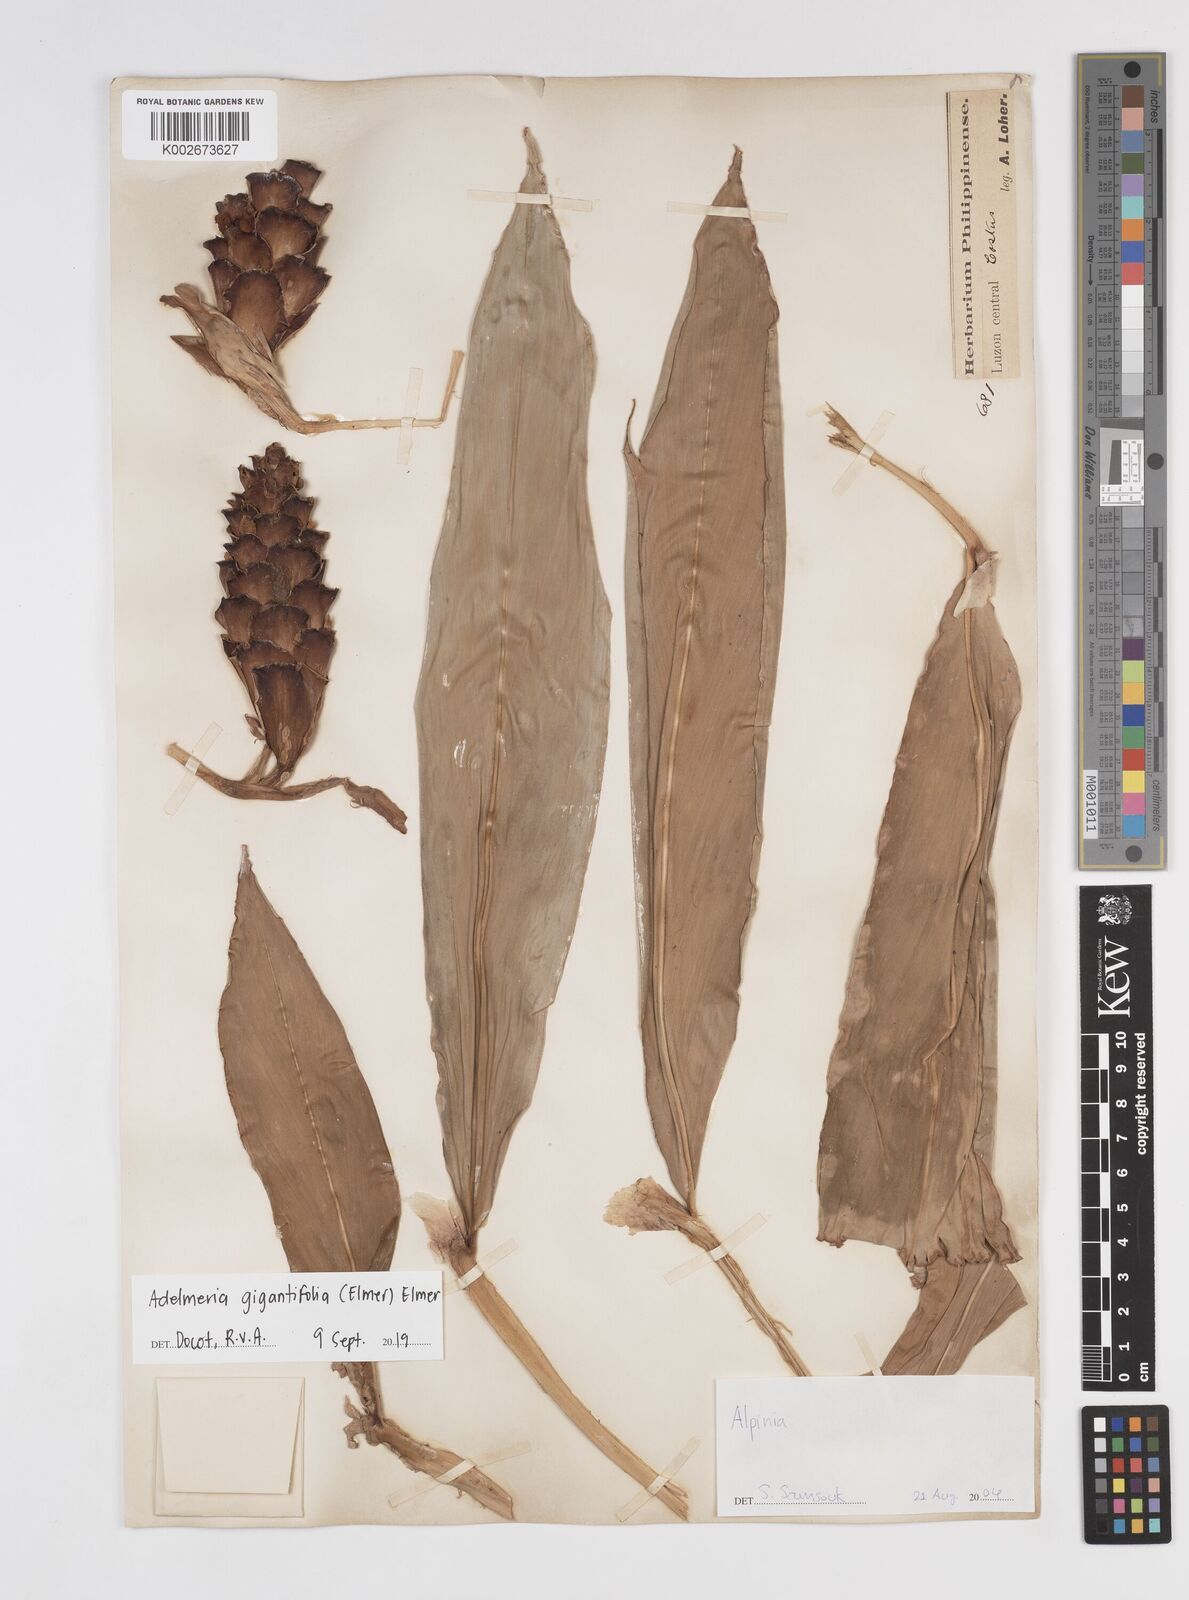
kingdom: Plantae
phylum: Tracheophyta
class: Liliopsida
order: Zingiberales
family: Zingiberaceae
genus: Adelmeria
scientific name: Adelmeria gigantifolia
